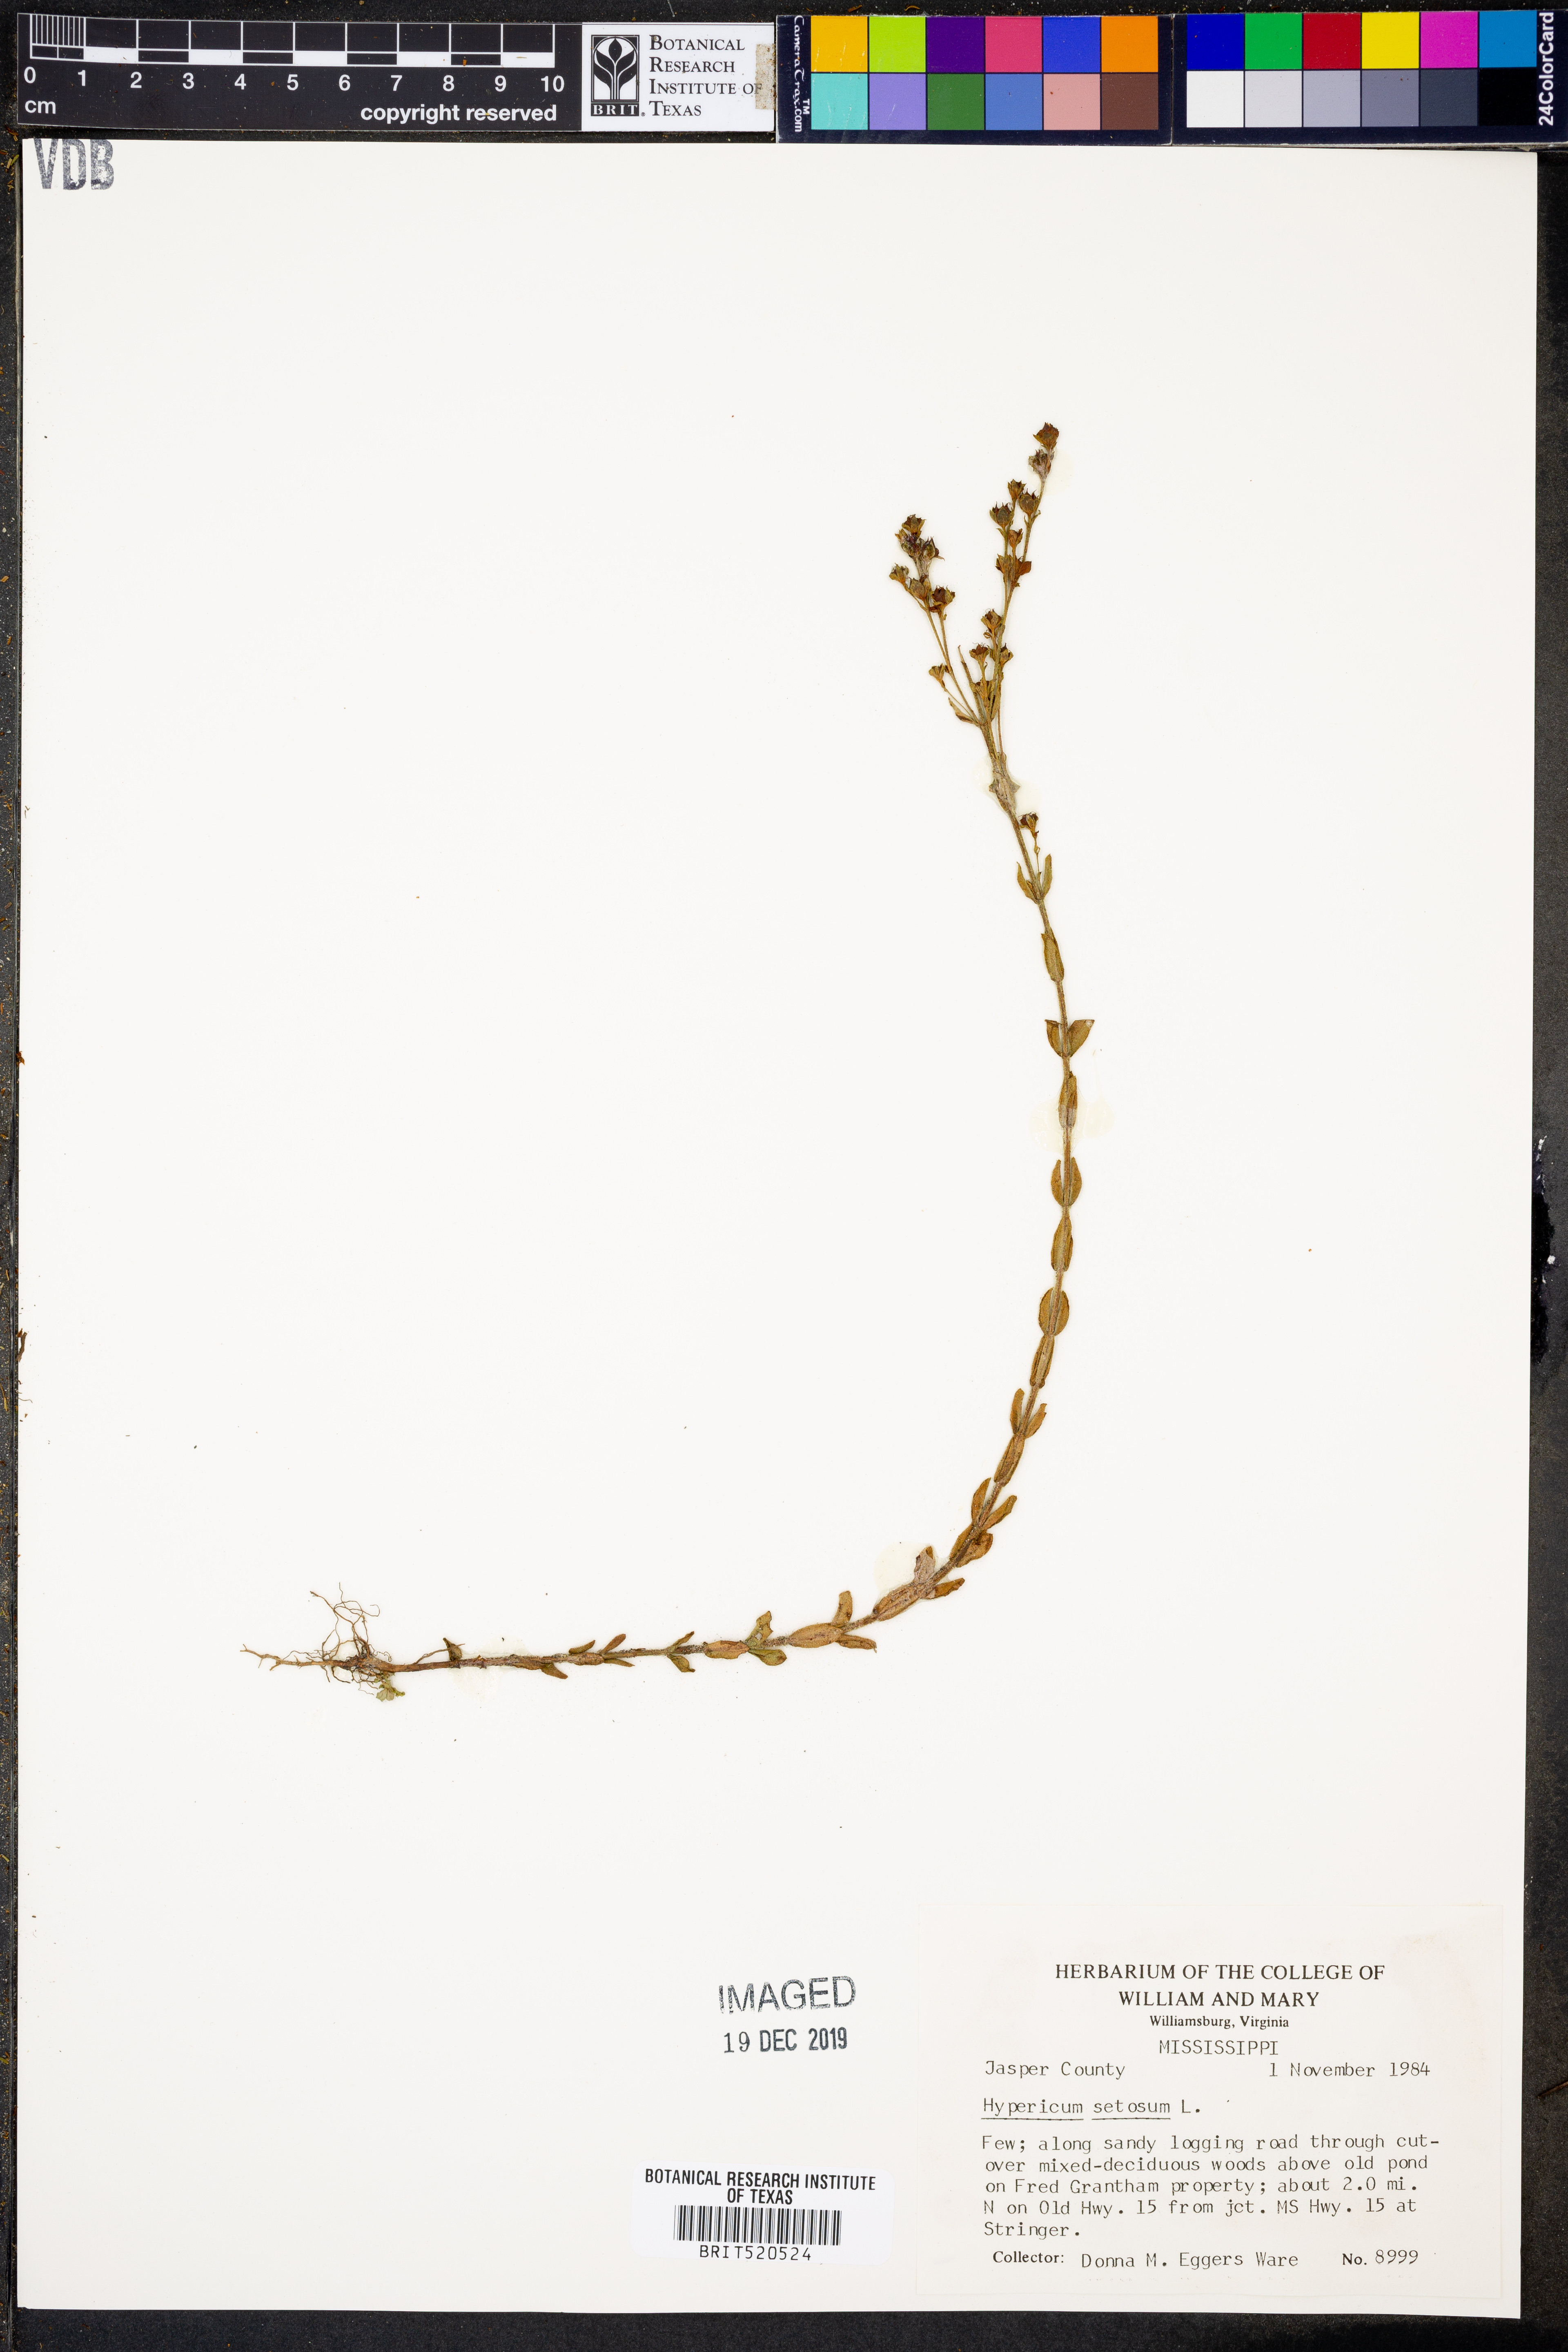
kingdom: Plantae
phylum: Tracheophyta
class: Magnoliopsida
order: Malpighiales
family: Hypericaceae
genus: Hypericum
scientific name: Hypericum setosum
